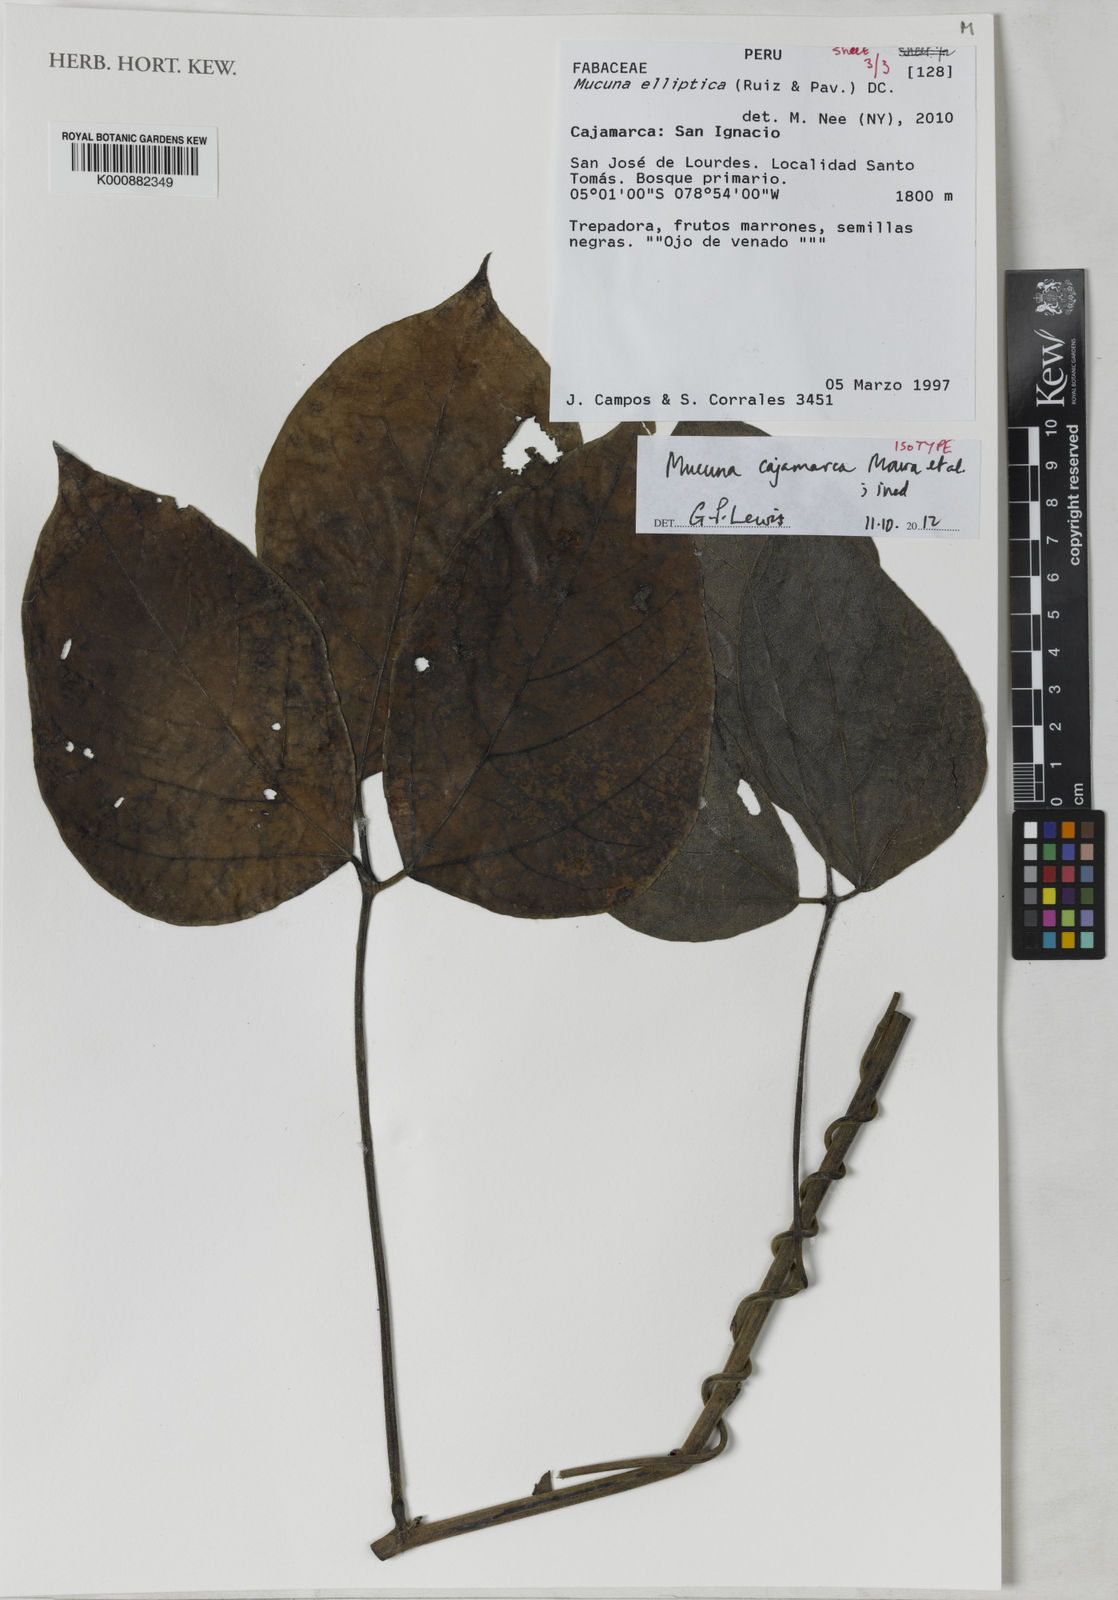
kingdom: Plantae
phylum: Tracheophyta
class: Magnoliopsida
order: Fabales
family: Fabaceae
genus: Mucuna
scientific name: Mucuna
